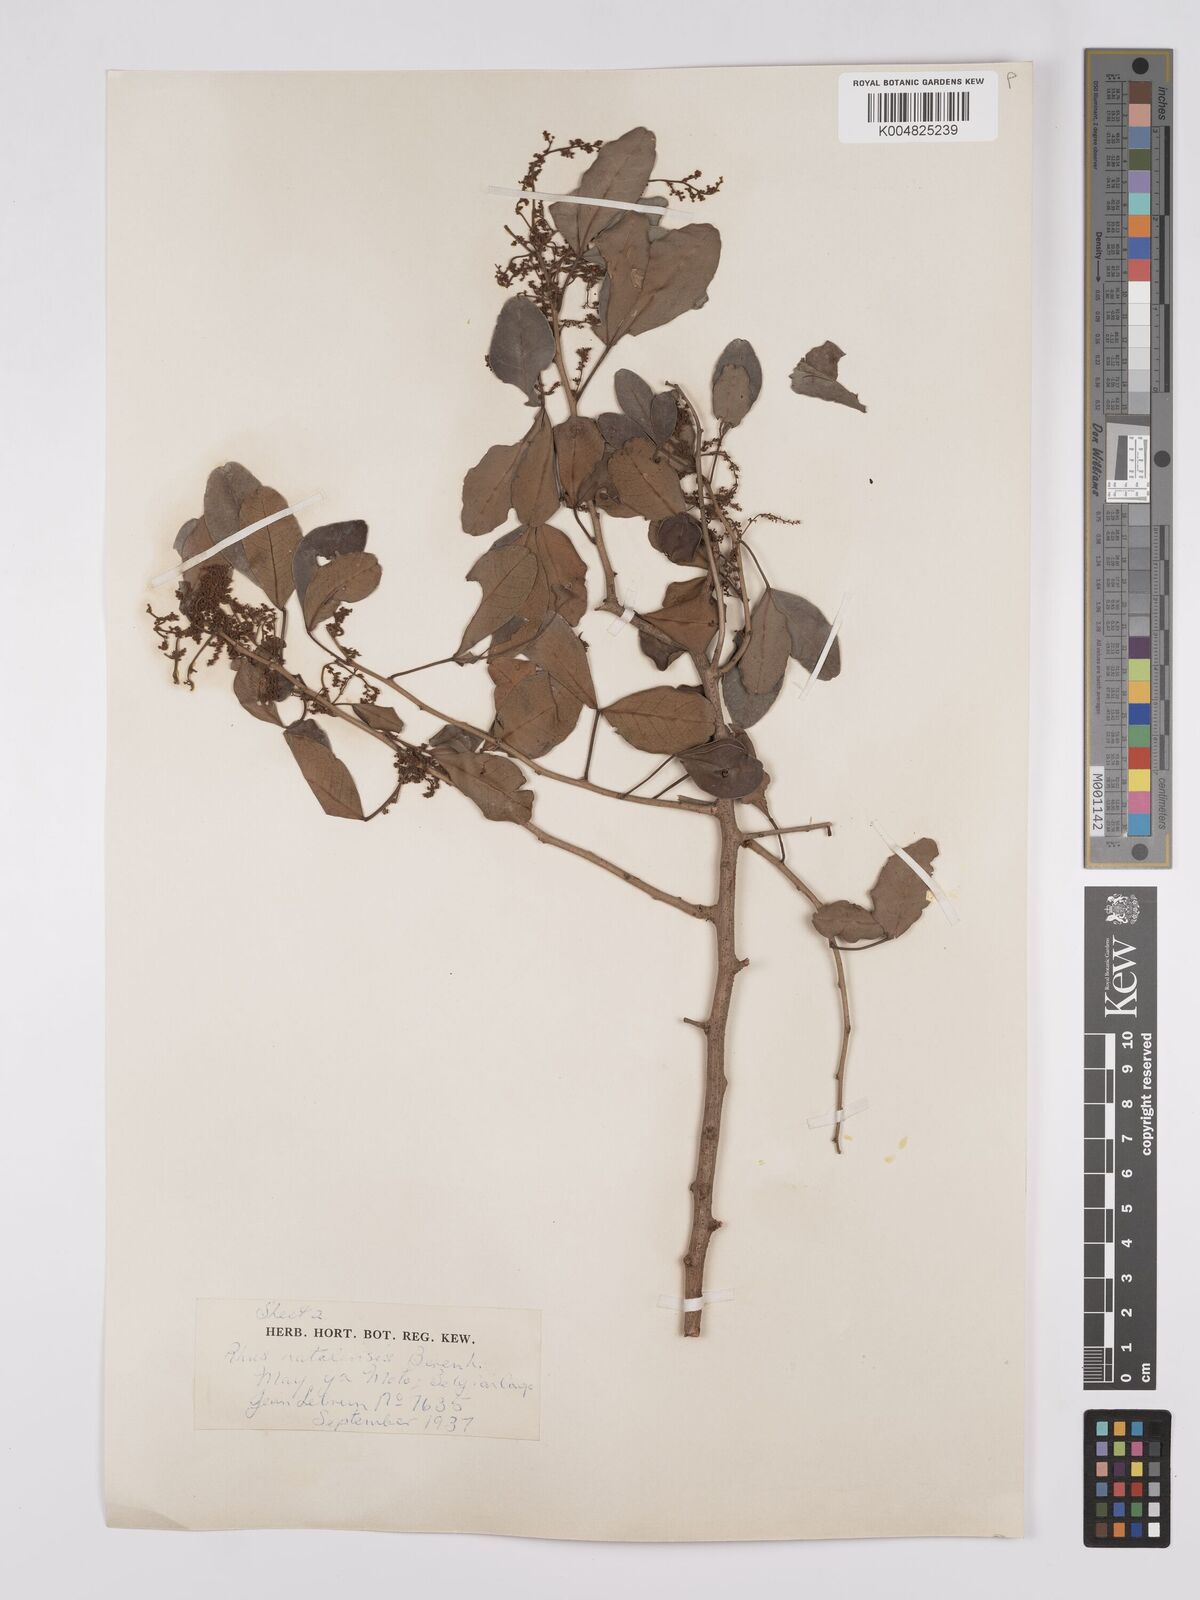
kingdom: Plantae
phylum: Tracheophyta
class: Magnoliopsida
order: Sapindales
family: Anacardiaceae
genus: Searsia
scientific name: Searsia natalensis
